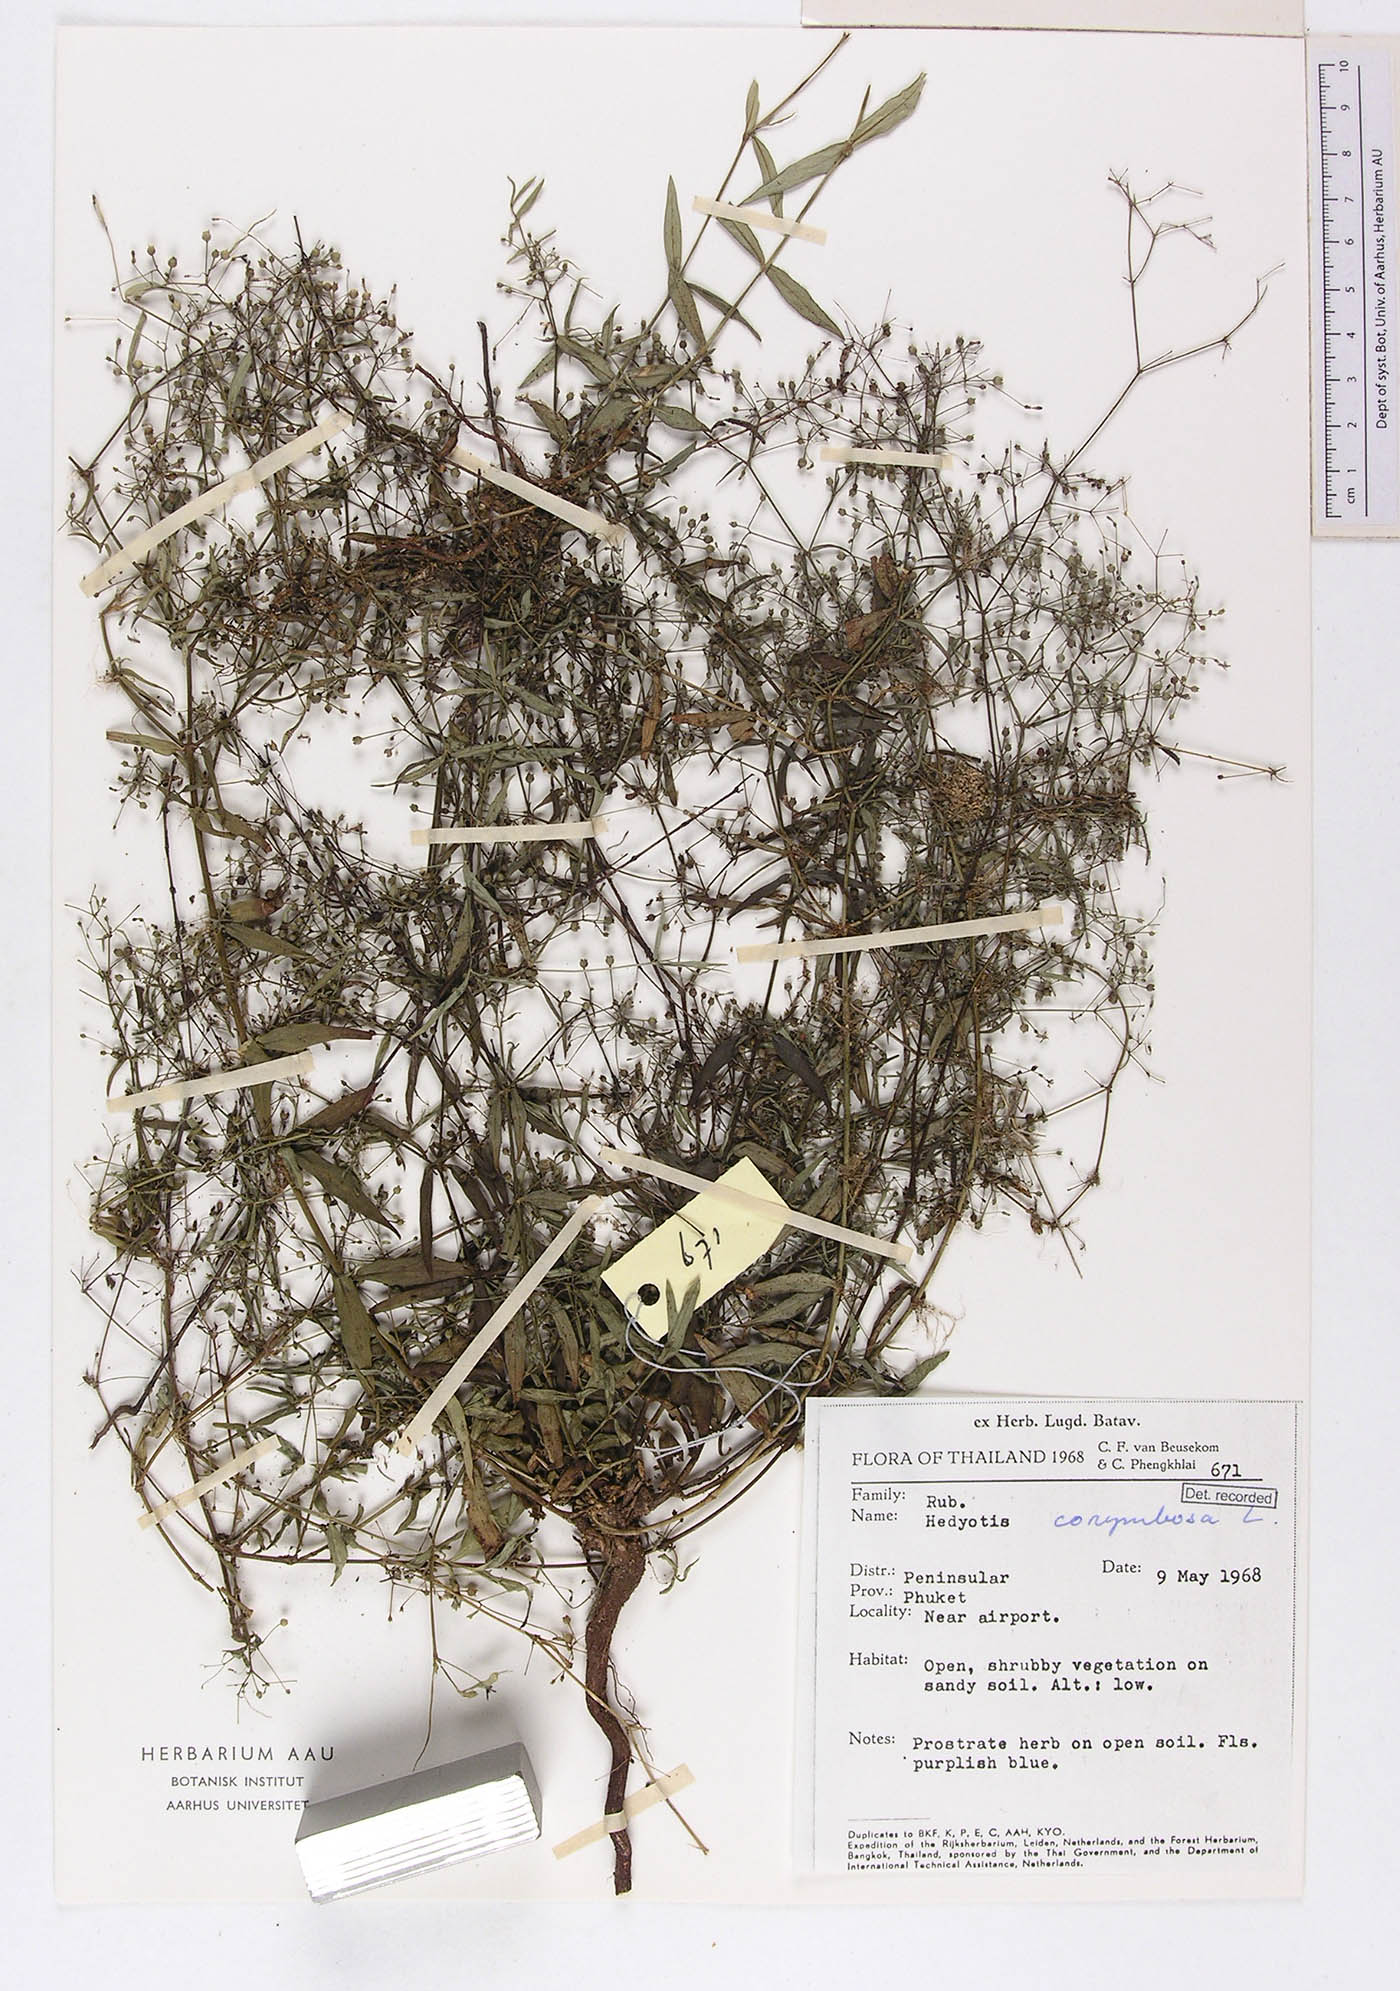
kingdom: Plantae
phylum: Tracheophyta
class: Magnoliopsida
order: Gentianales
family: Rubiaceae
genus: Oldenlandia
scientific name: Oldenlandia corymbosa
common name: Flat-top mille graines
